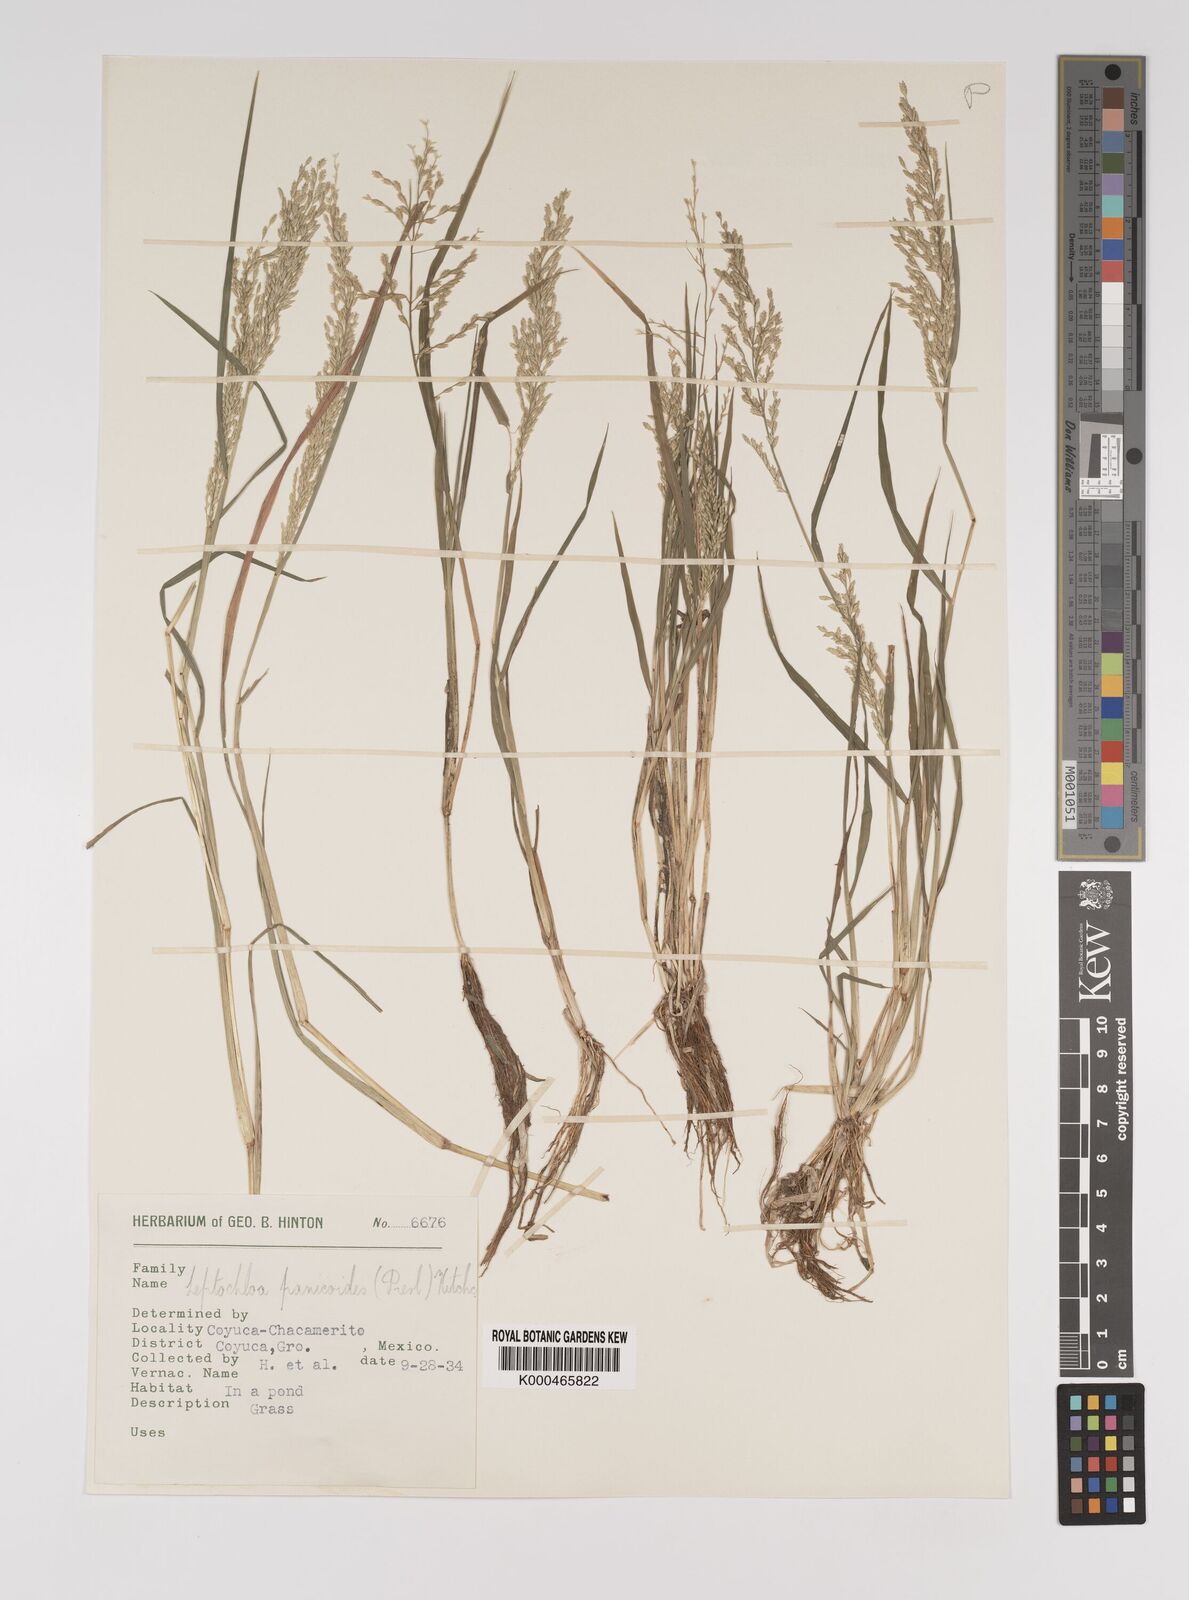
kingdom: Plantae
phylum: Tracheophyta
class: Liliopsida
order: Poales
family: Poaceae
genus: Leptochloa
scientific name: Leptochloa panicoides
